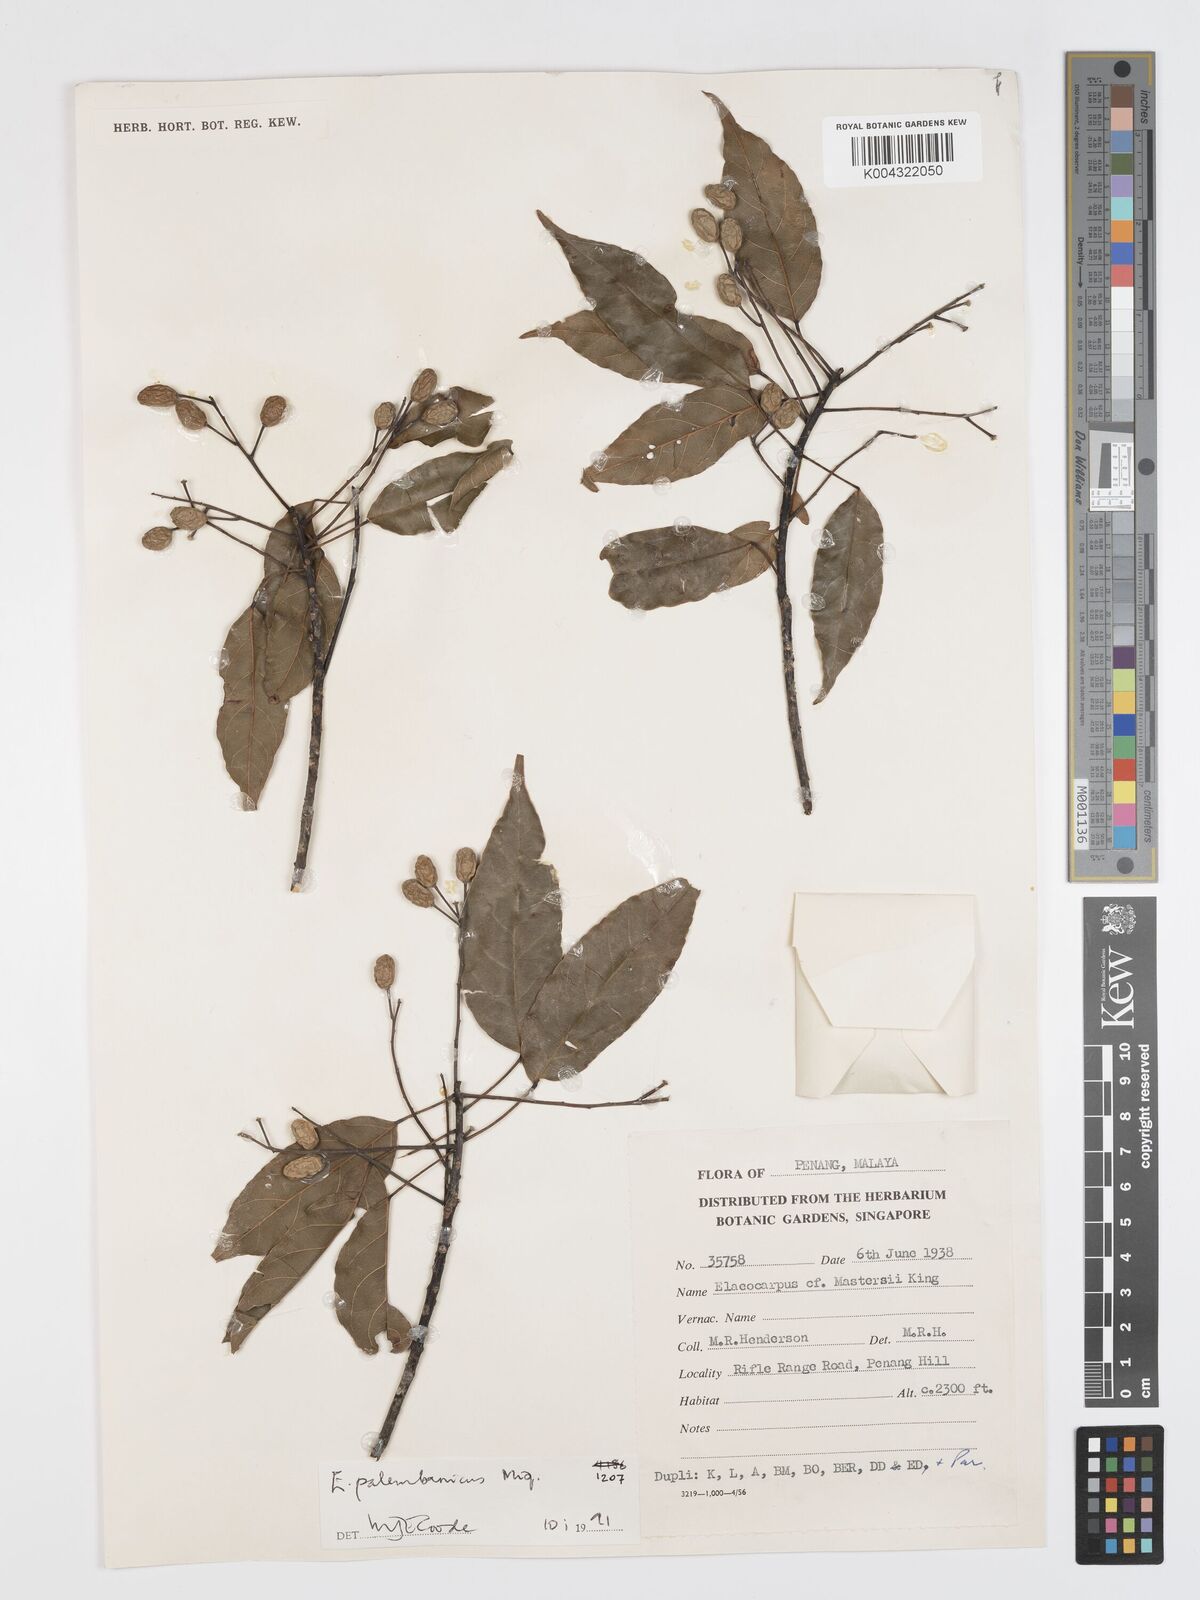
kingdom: Plantae
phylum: Tracheophyta
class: Magnoliopsida
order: Oxalidales
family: Elaeocarpaceae
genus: Elaeocarpus
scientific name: Elaeocarpus palembanicus
